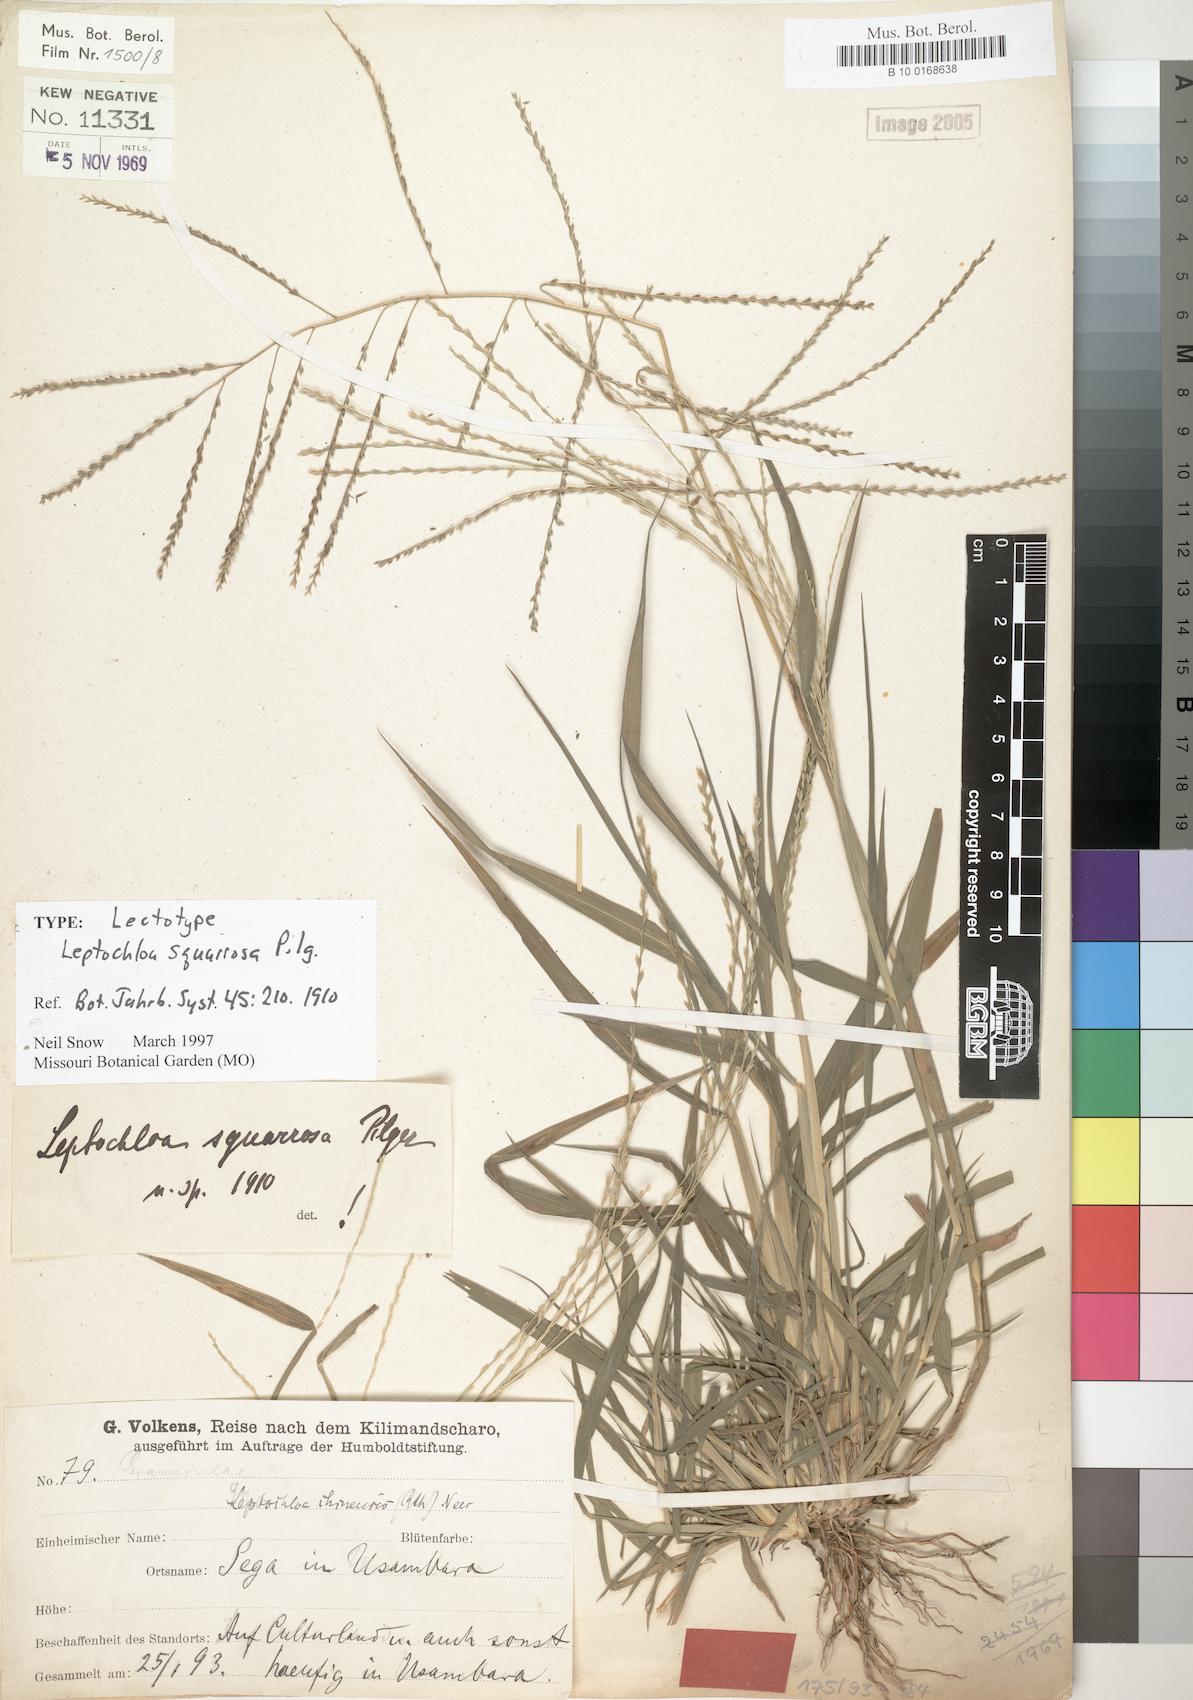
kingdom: Plantae
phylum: Tracheophyta
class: Liliopsida
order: Poales
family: Poaceae
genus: Leptochloa
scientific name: Leptochloa squarrosa
